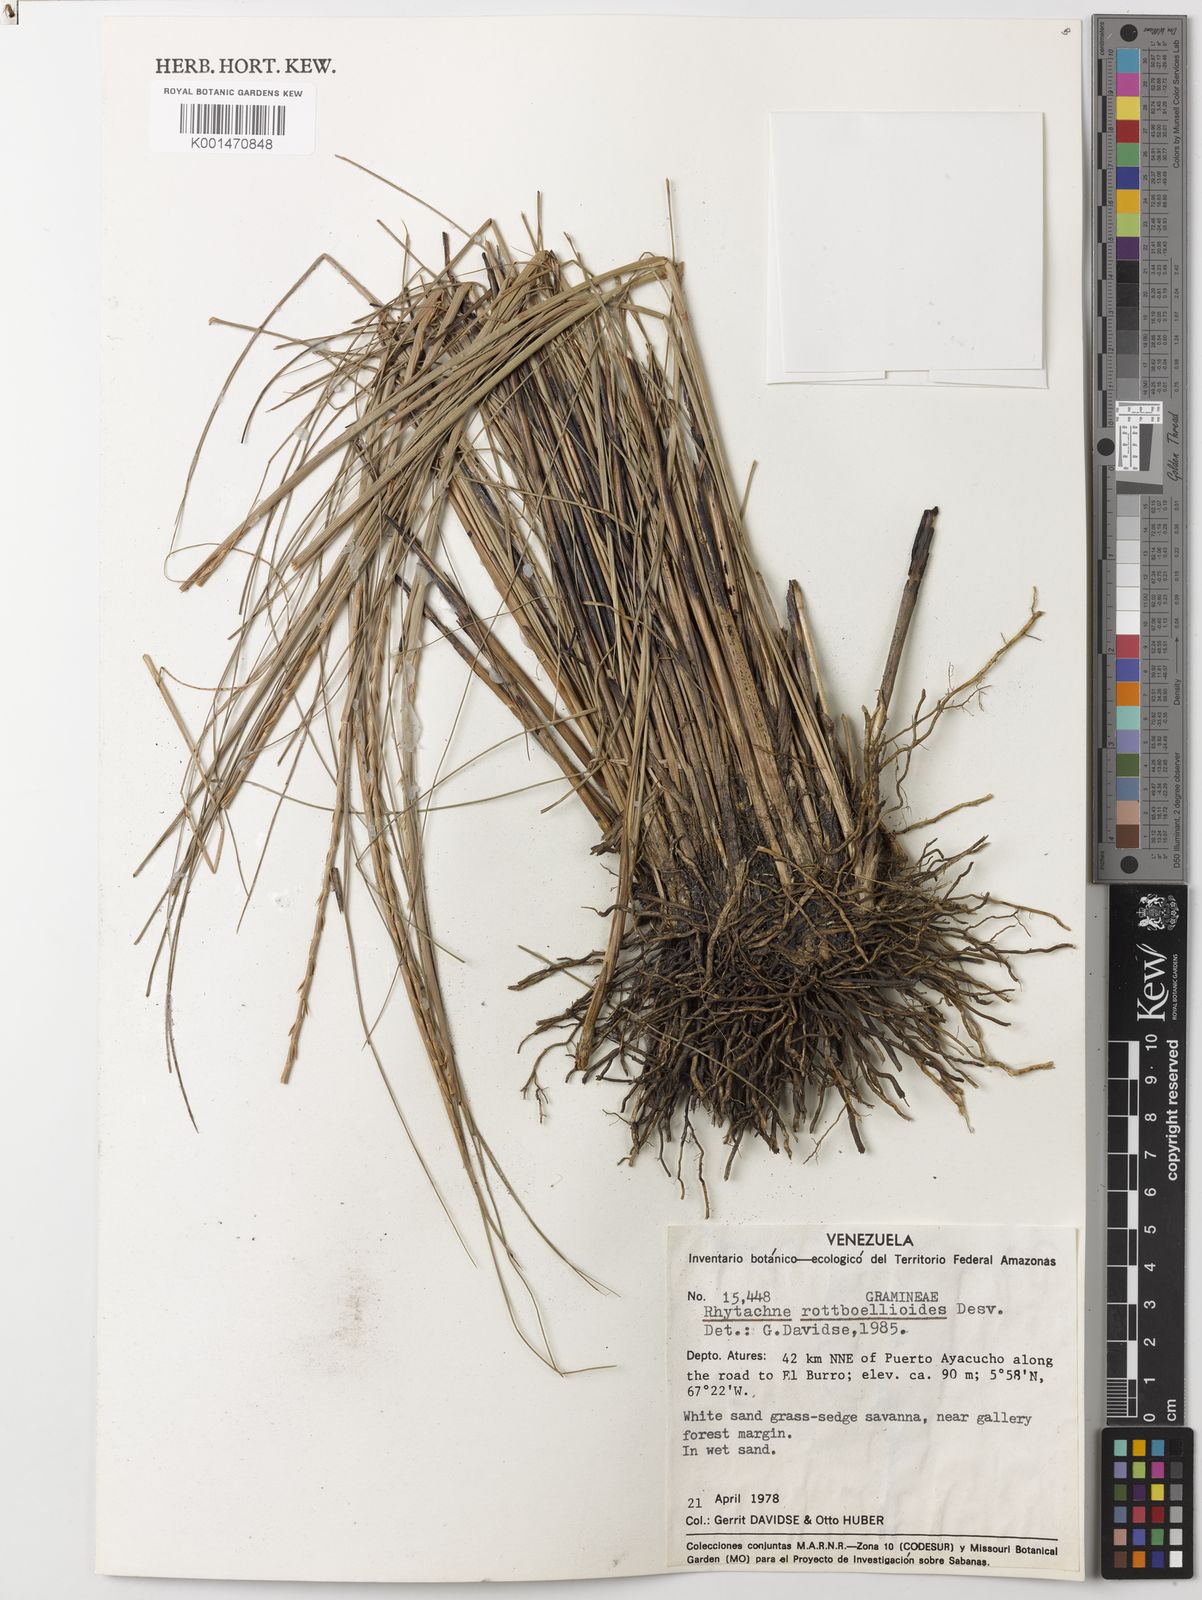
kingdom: Plantae
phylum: Tracheophyta
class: Liliopsida
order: Poales
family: Poaceae
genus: Rhytachne
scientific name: Rhytachne rottboellioides
